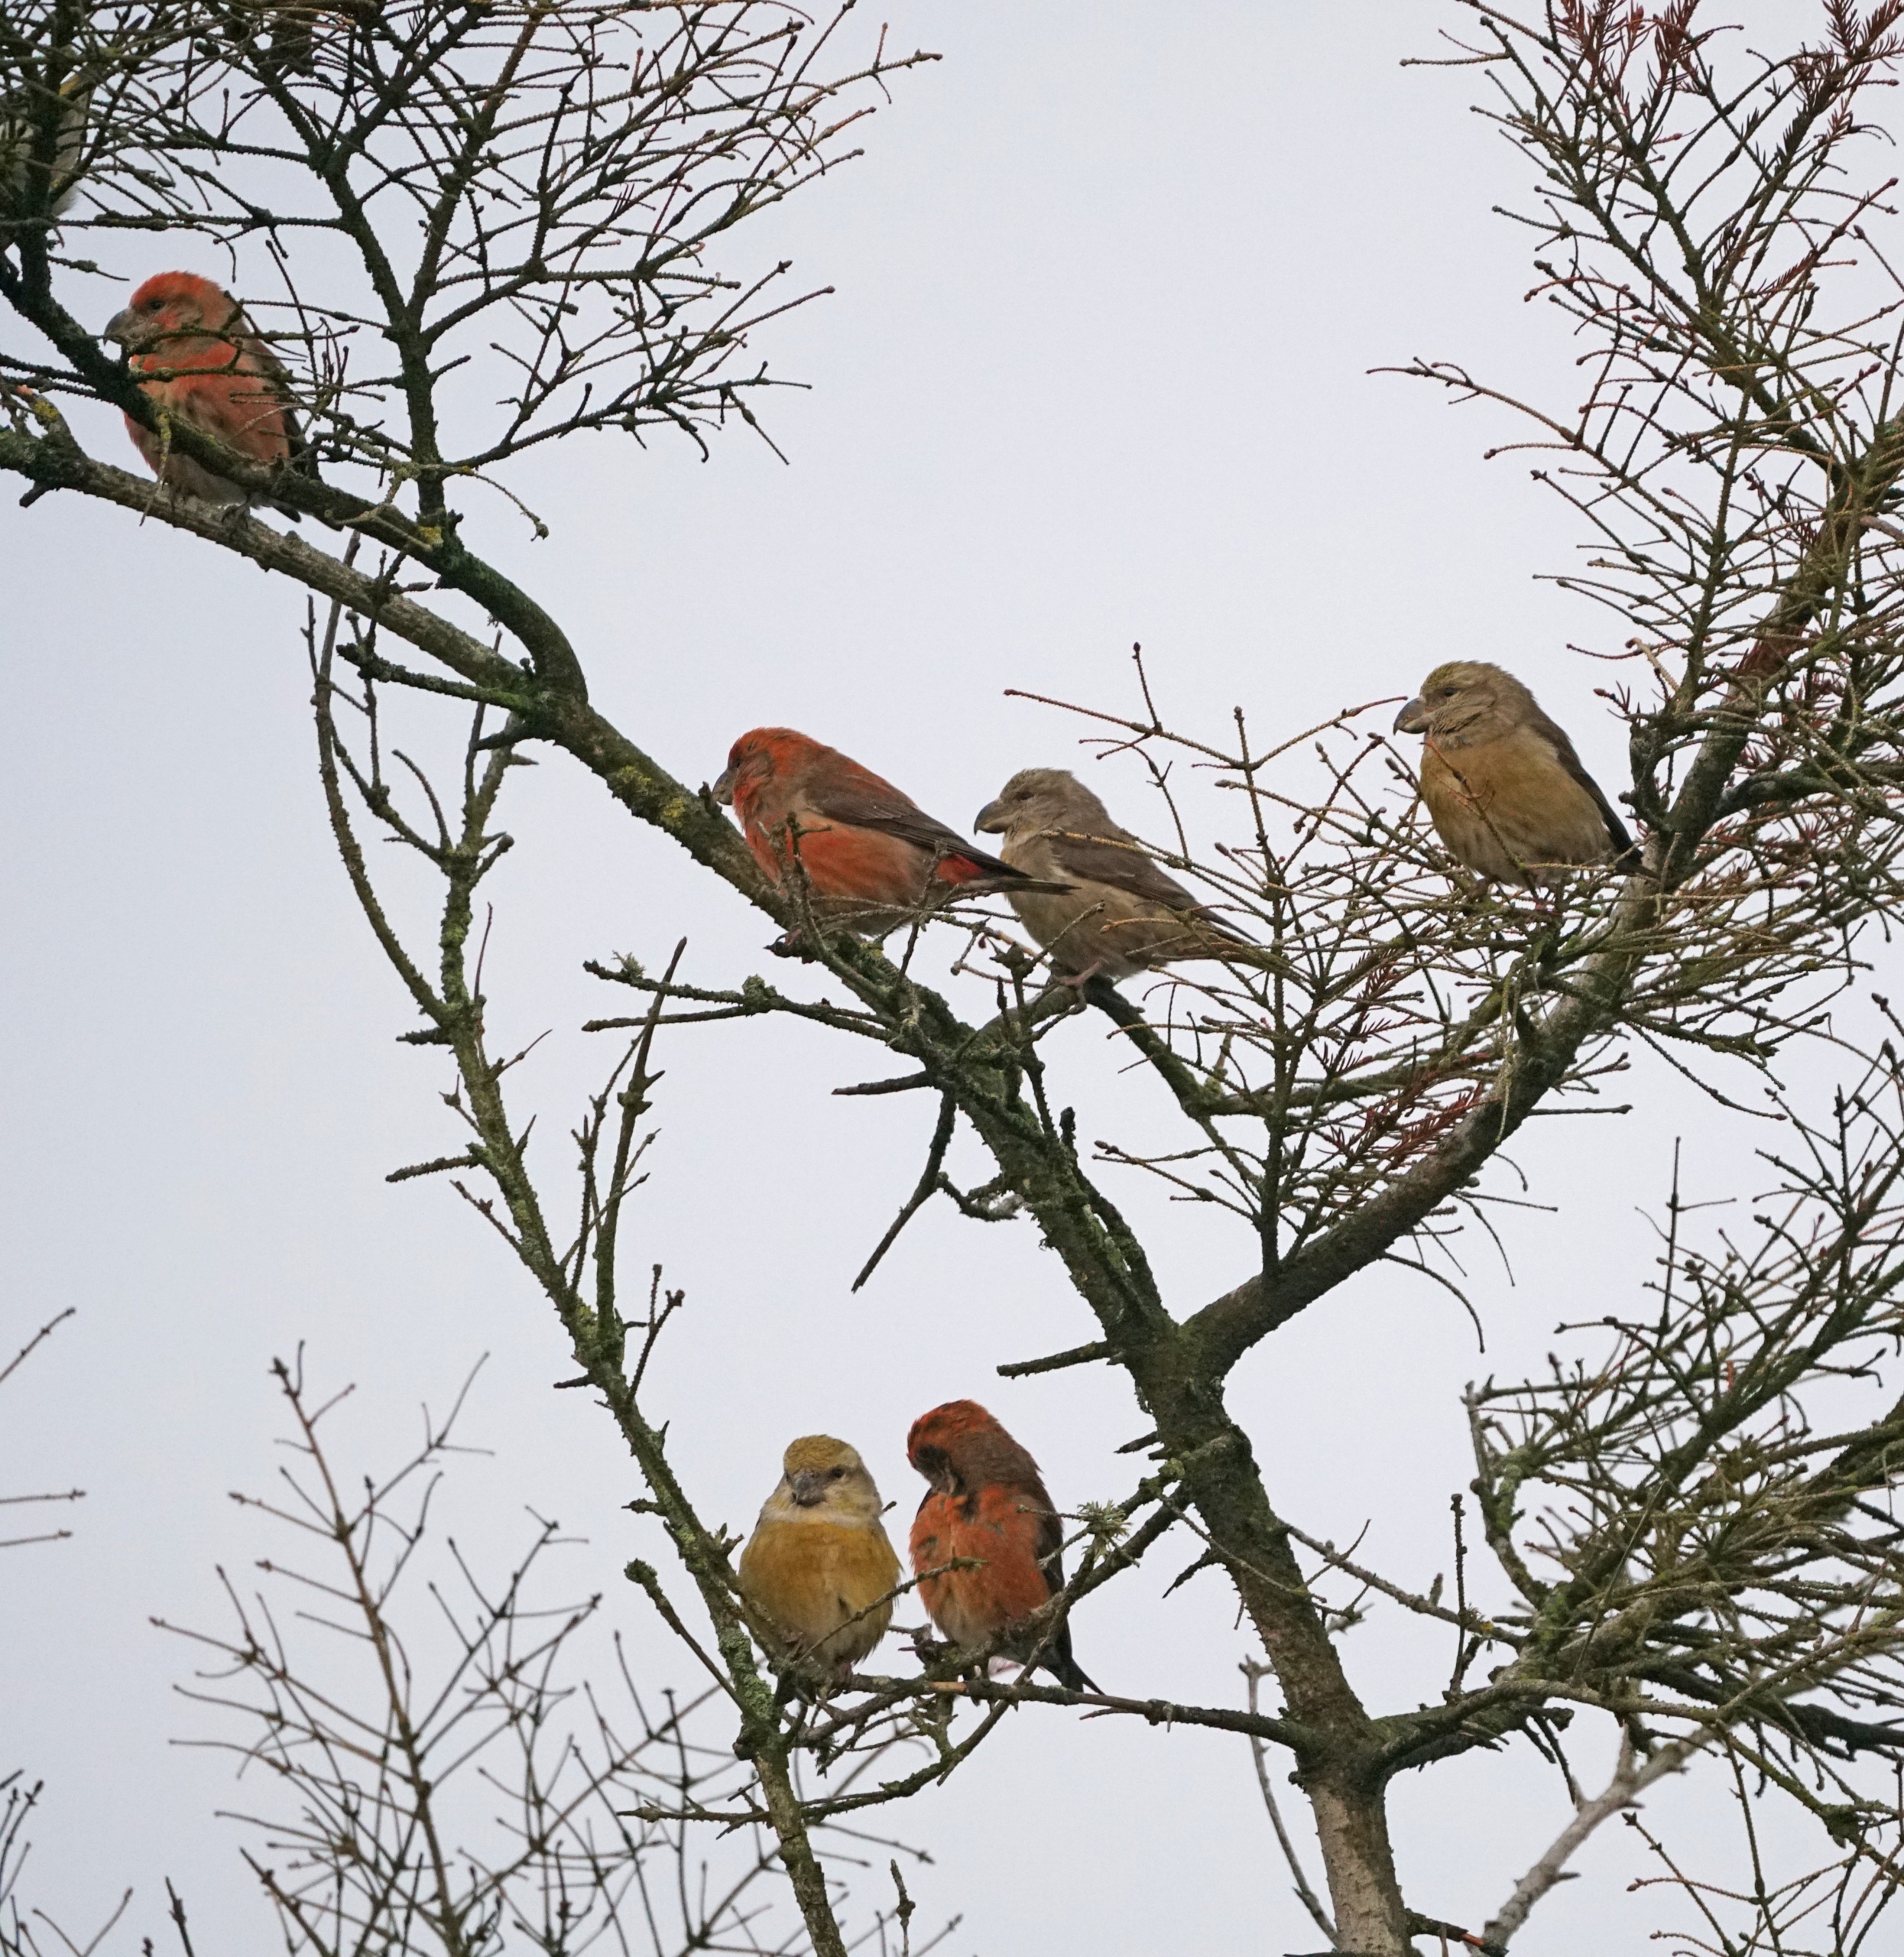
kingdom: Animalia
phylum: Chordata
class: Aves
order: Passeriformes
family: Fringillidae
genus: Loxia
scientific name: Loxia pytyopsittacus
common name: Stor korsnæb
